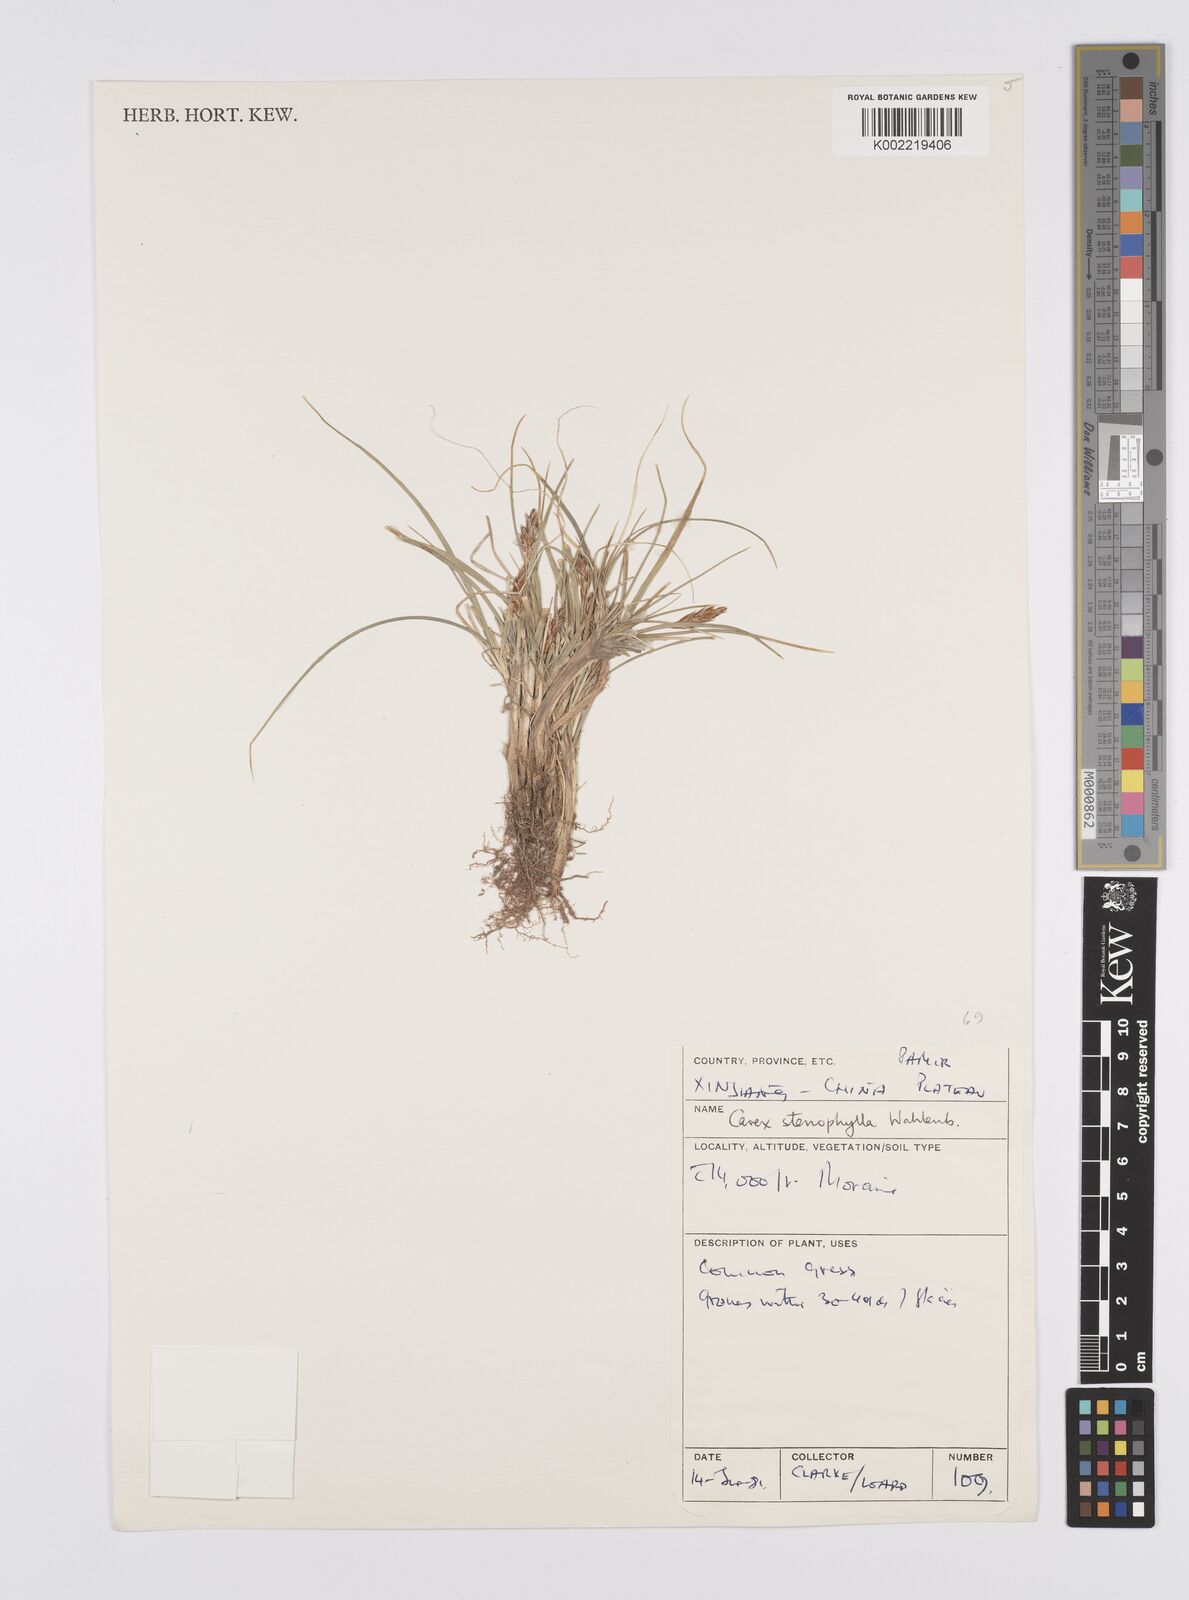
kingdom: Plantae
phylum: Tracheophyta
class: Liliopsida
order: Poales
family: Cyperaceae
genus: Carex
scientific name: Carex stenophylla
